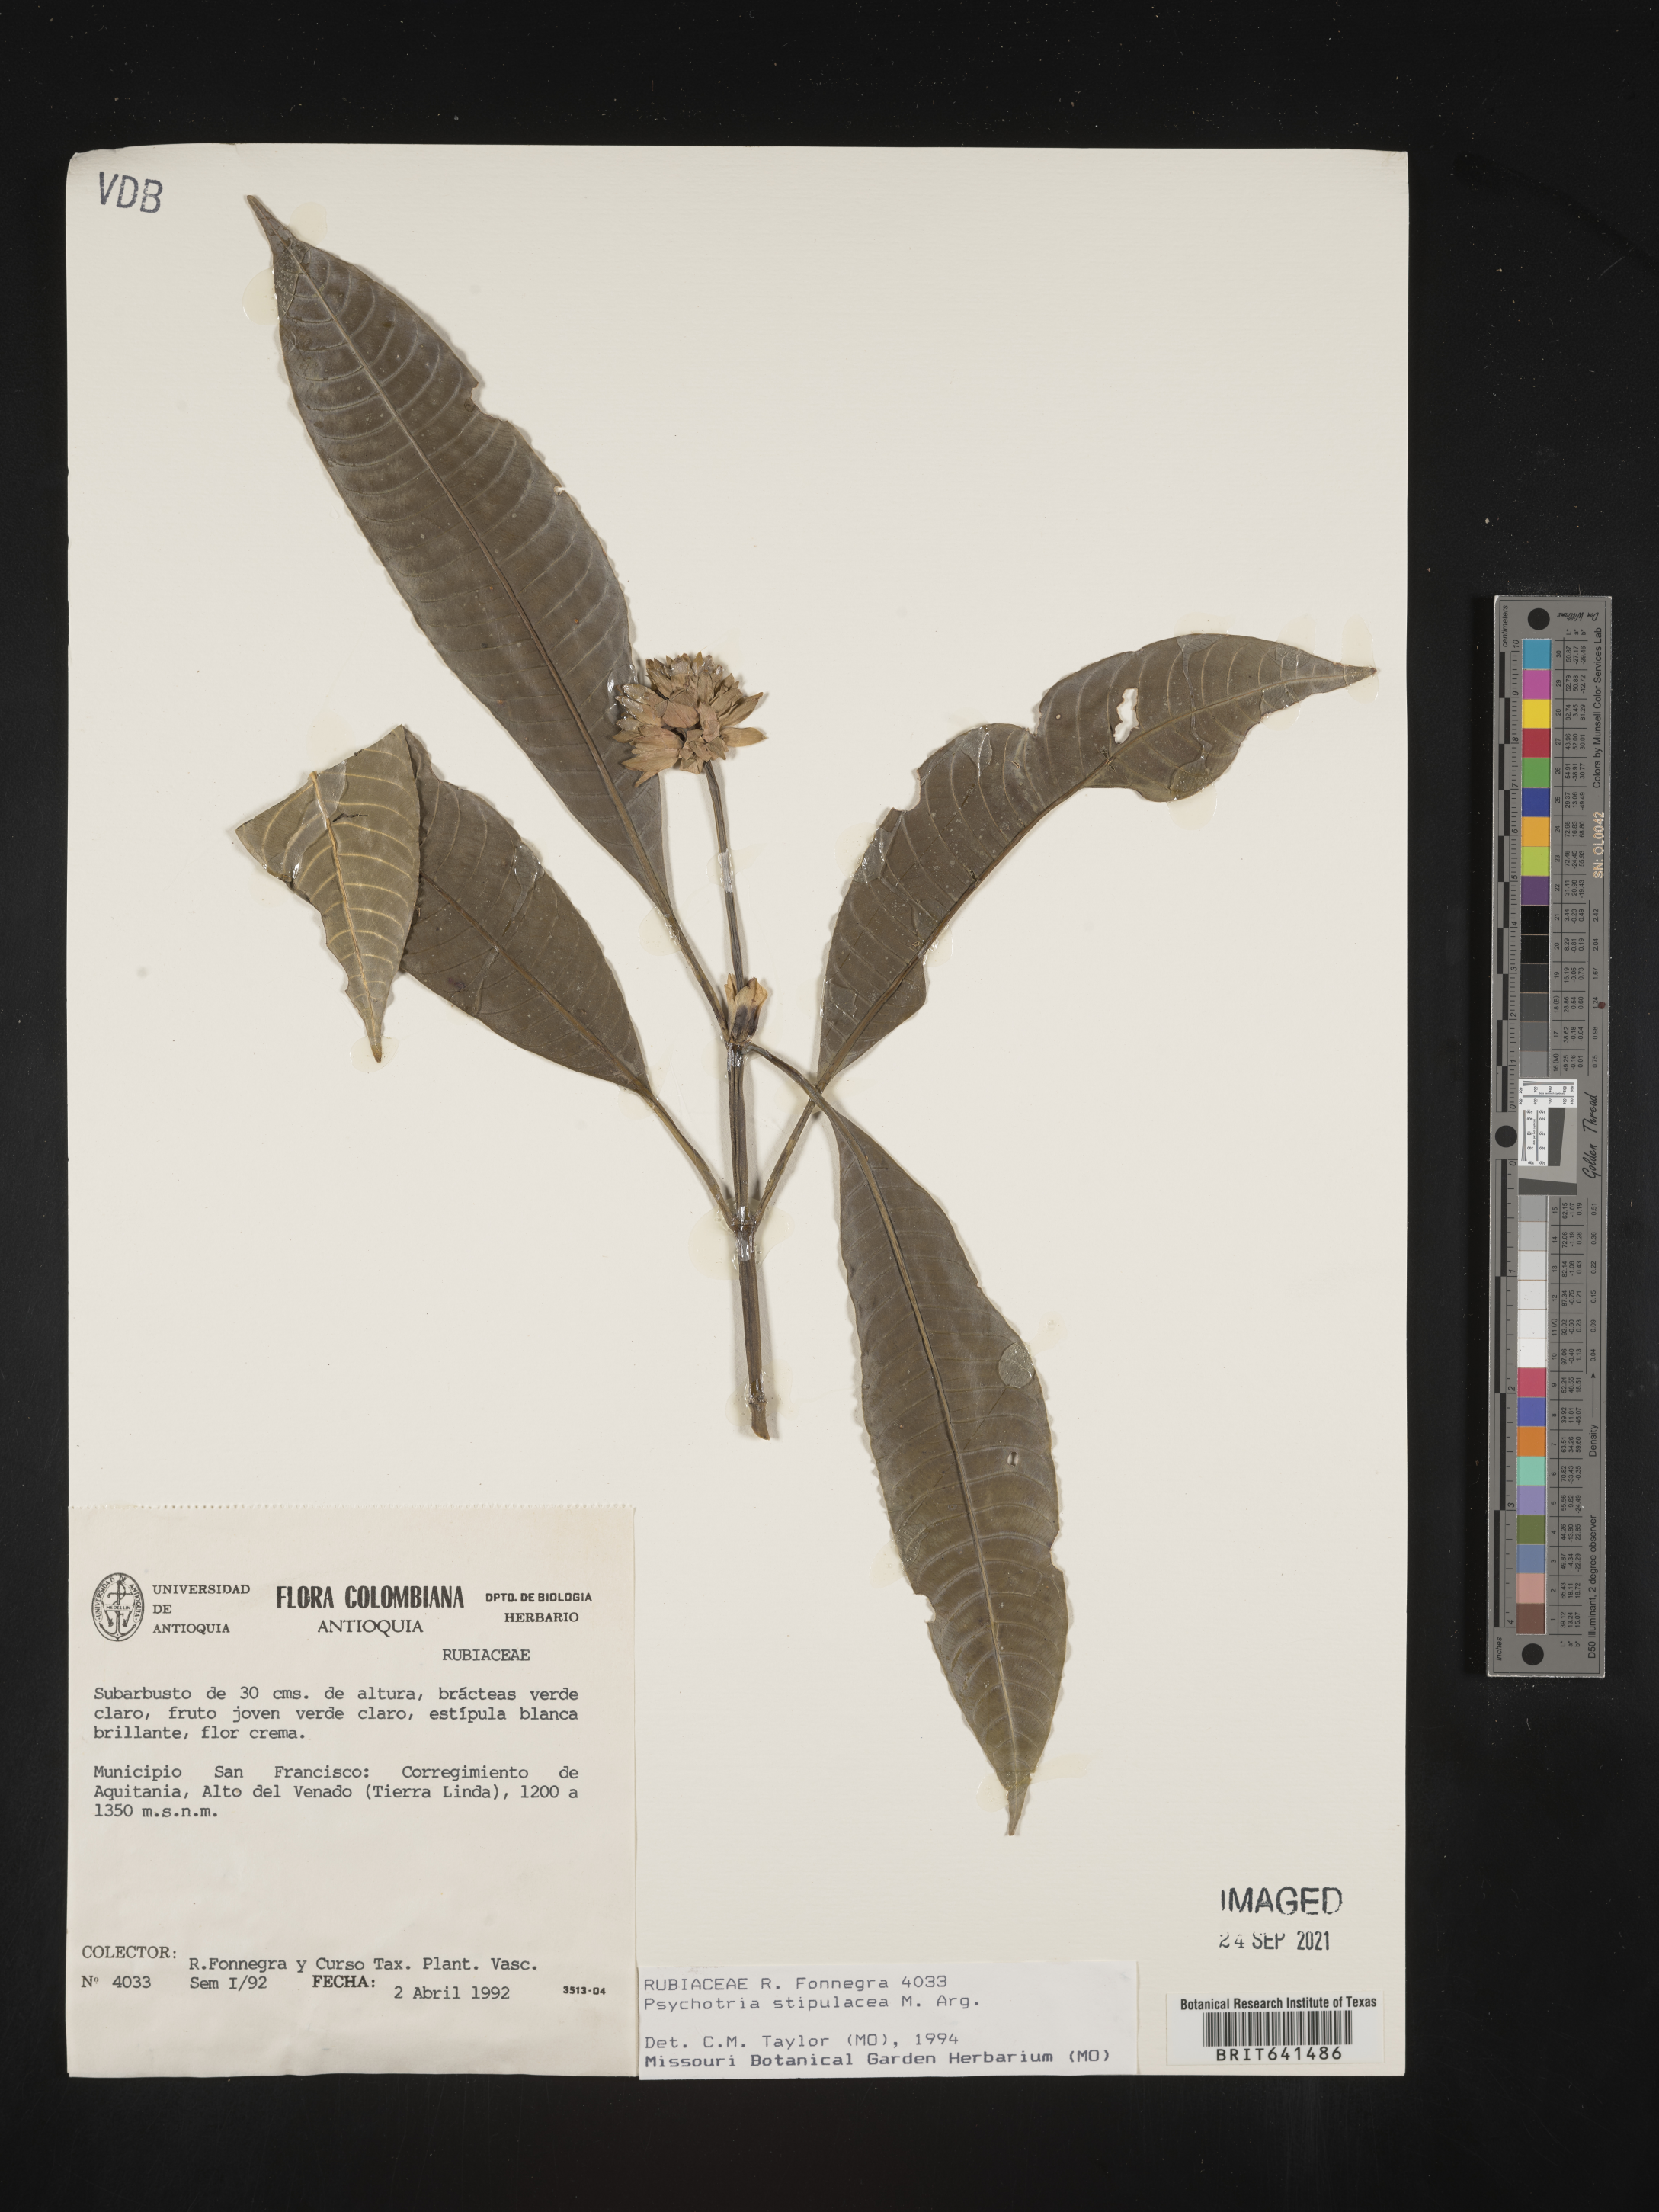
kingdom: Plantae
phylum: Tracheophyta
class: Magnoliopsida
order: Gentianales
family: Rubiaceae
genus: Psychotria
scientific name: Psychotria
